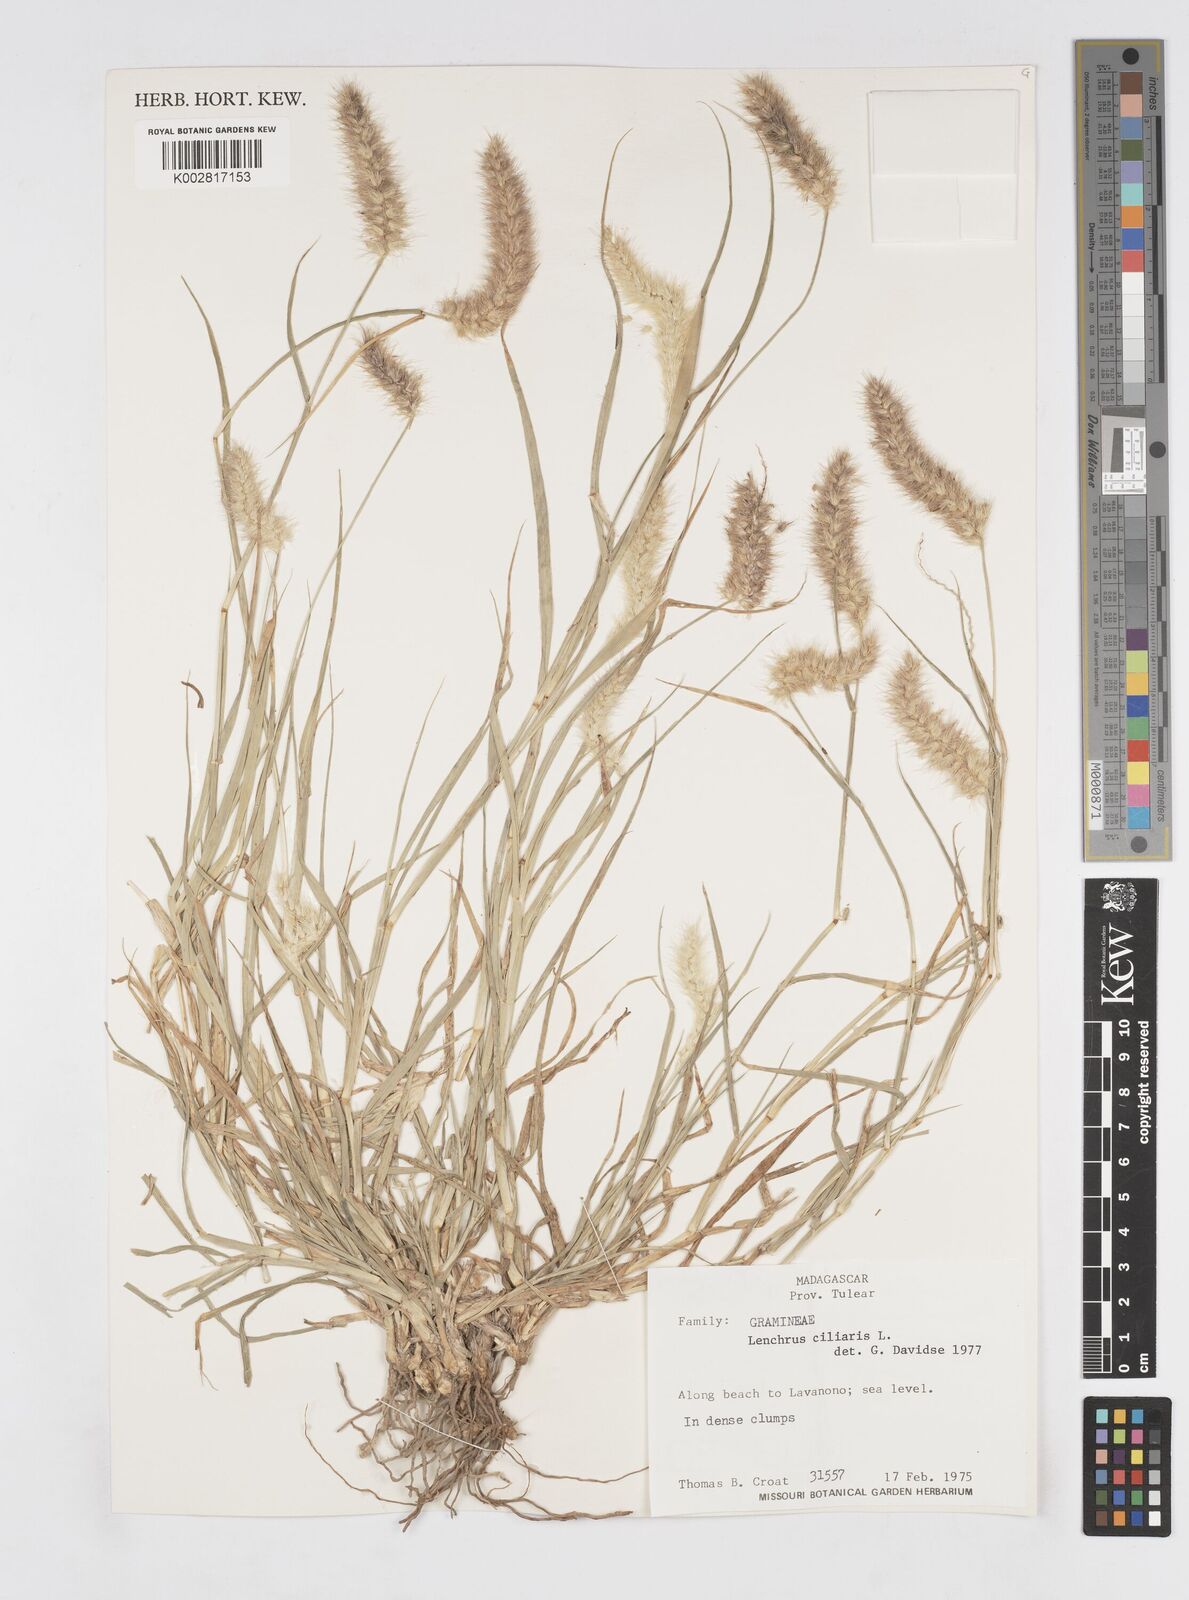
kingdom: Plantae
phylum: Tracheophyta
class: Liliopsida
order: Poales
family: Poaceae
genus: Cenchrus
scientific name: Cenchrus ciliaris
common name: Buffelgrass
